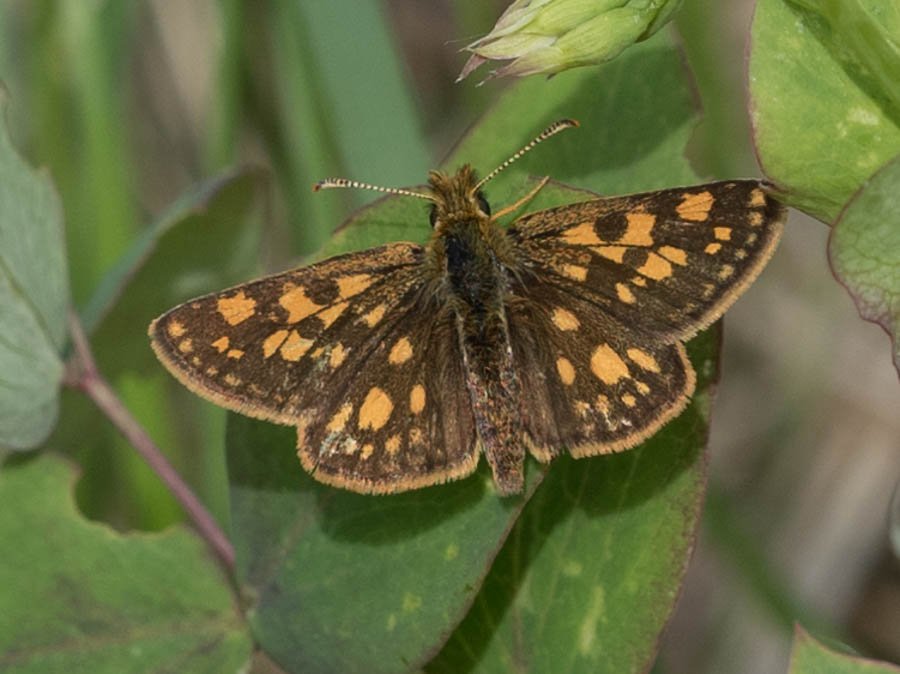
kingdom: Animalia
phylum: Arthropoda
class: Insecta
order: Lepidoptera
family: Hesperiidae
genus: Carterocephalus
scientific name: Carterocephalus palaemon
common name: Chequered Skipper
